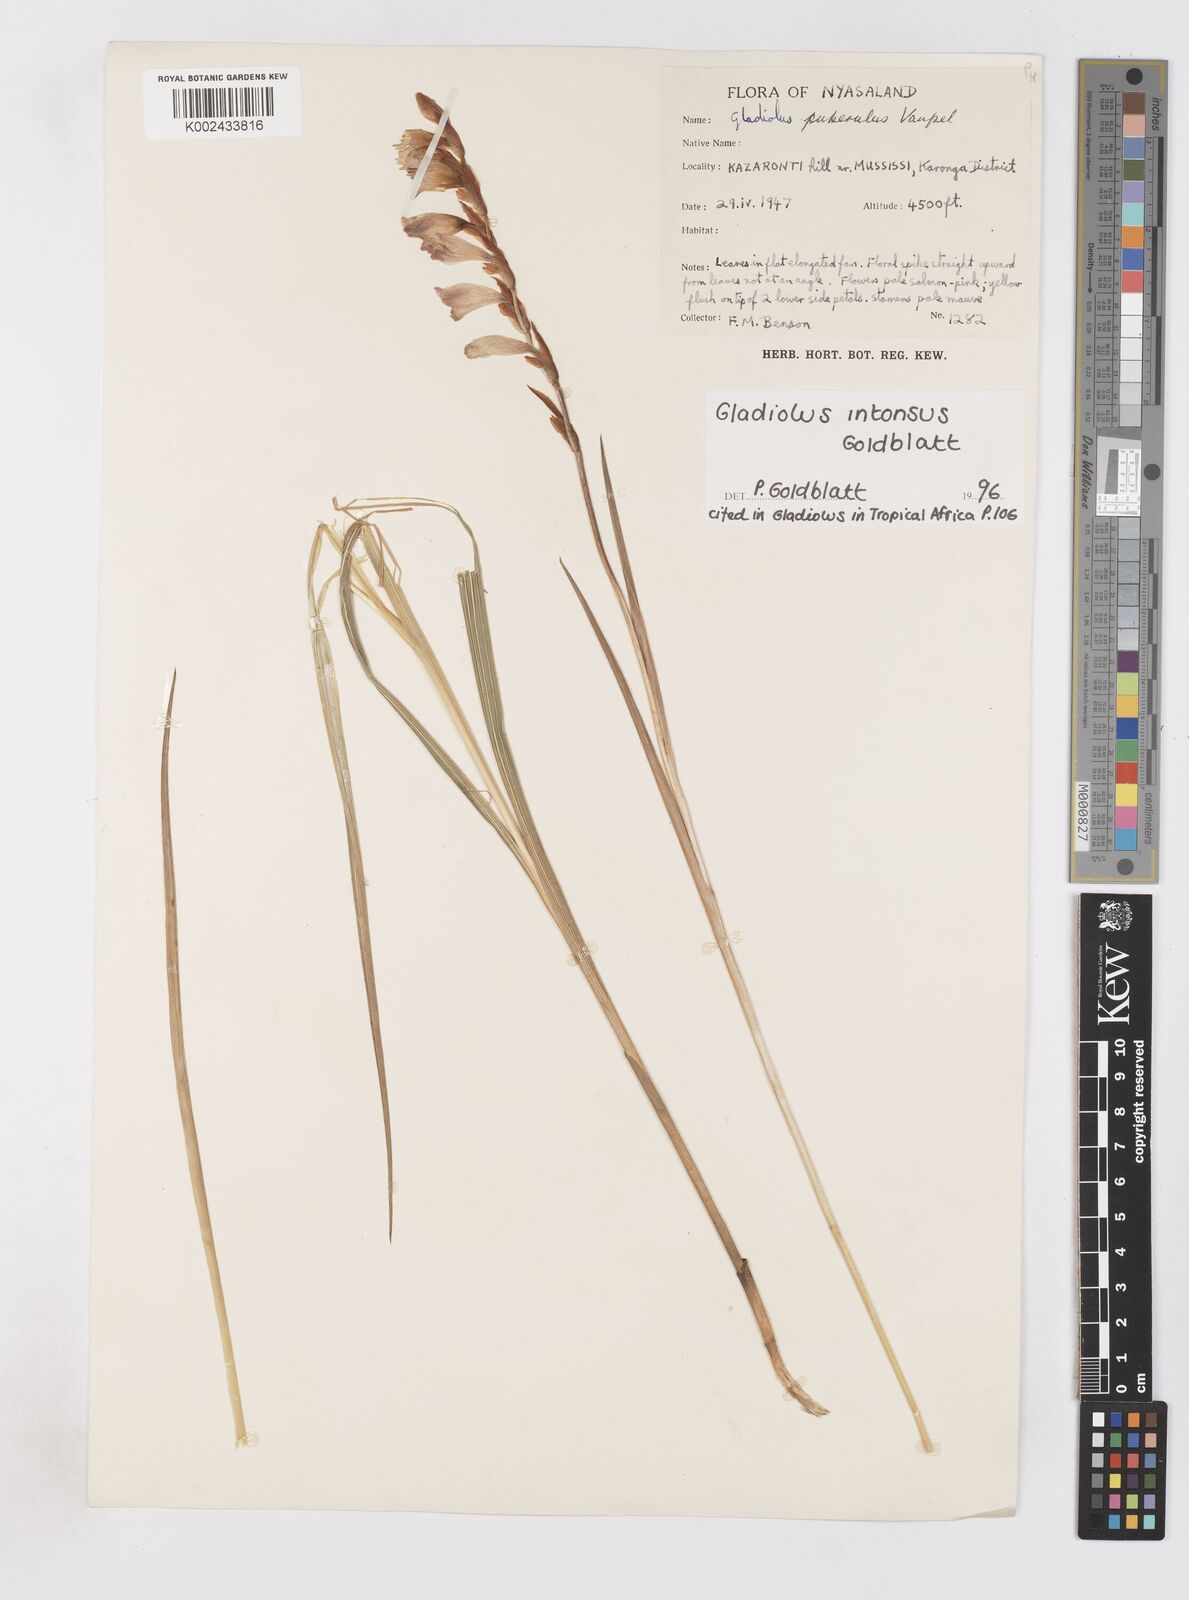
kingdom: Plantae
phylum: Tracheophyta
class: Liliopsida
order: Asparagales
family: Iridaceae
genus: Gladiolus
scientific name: Gladiolus intonsus
